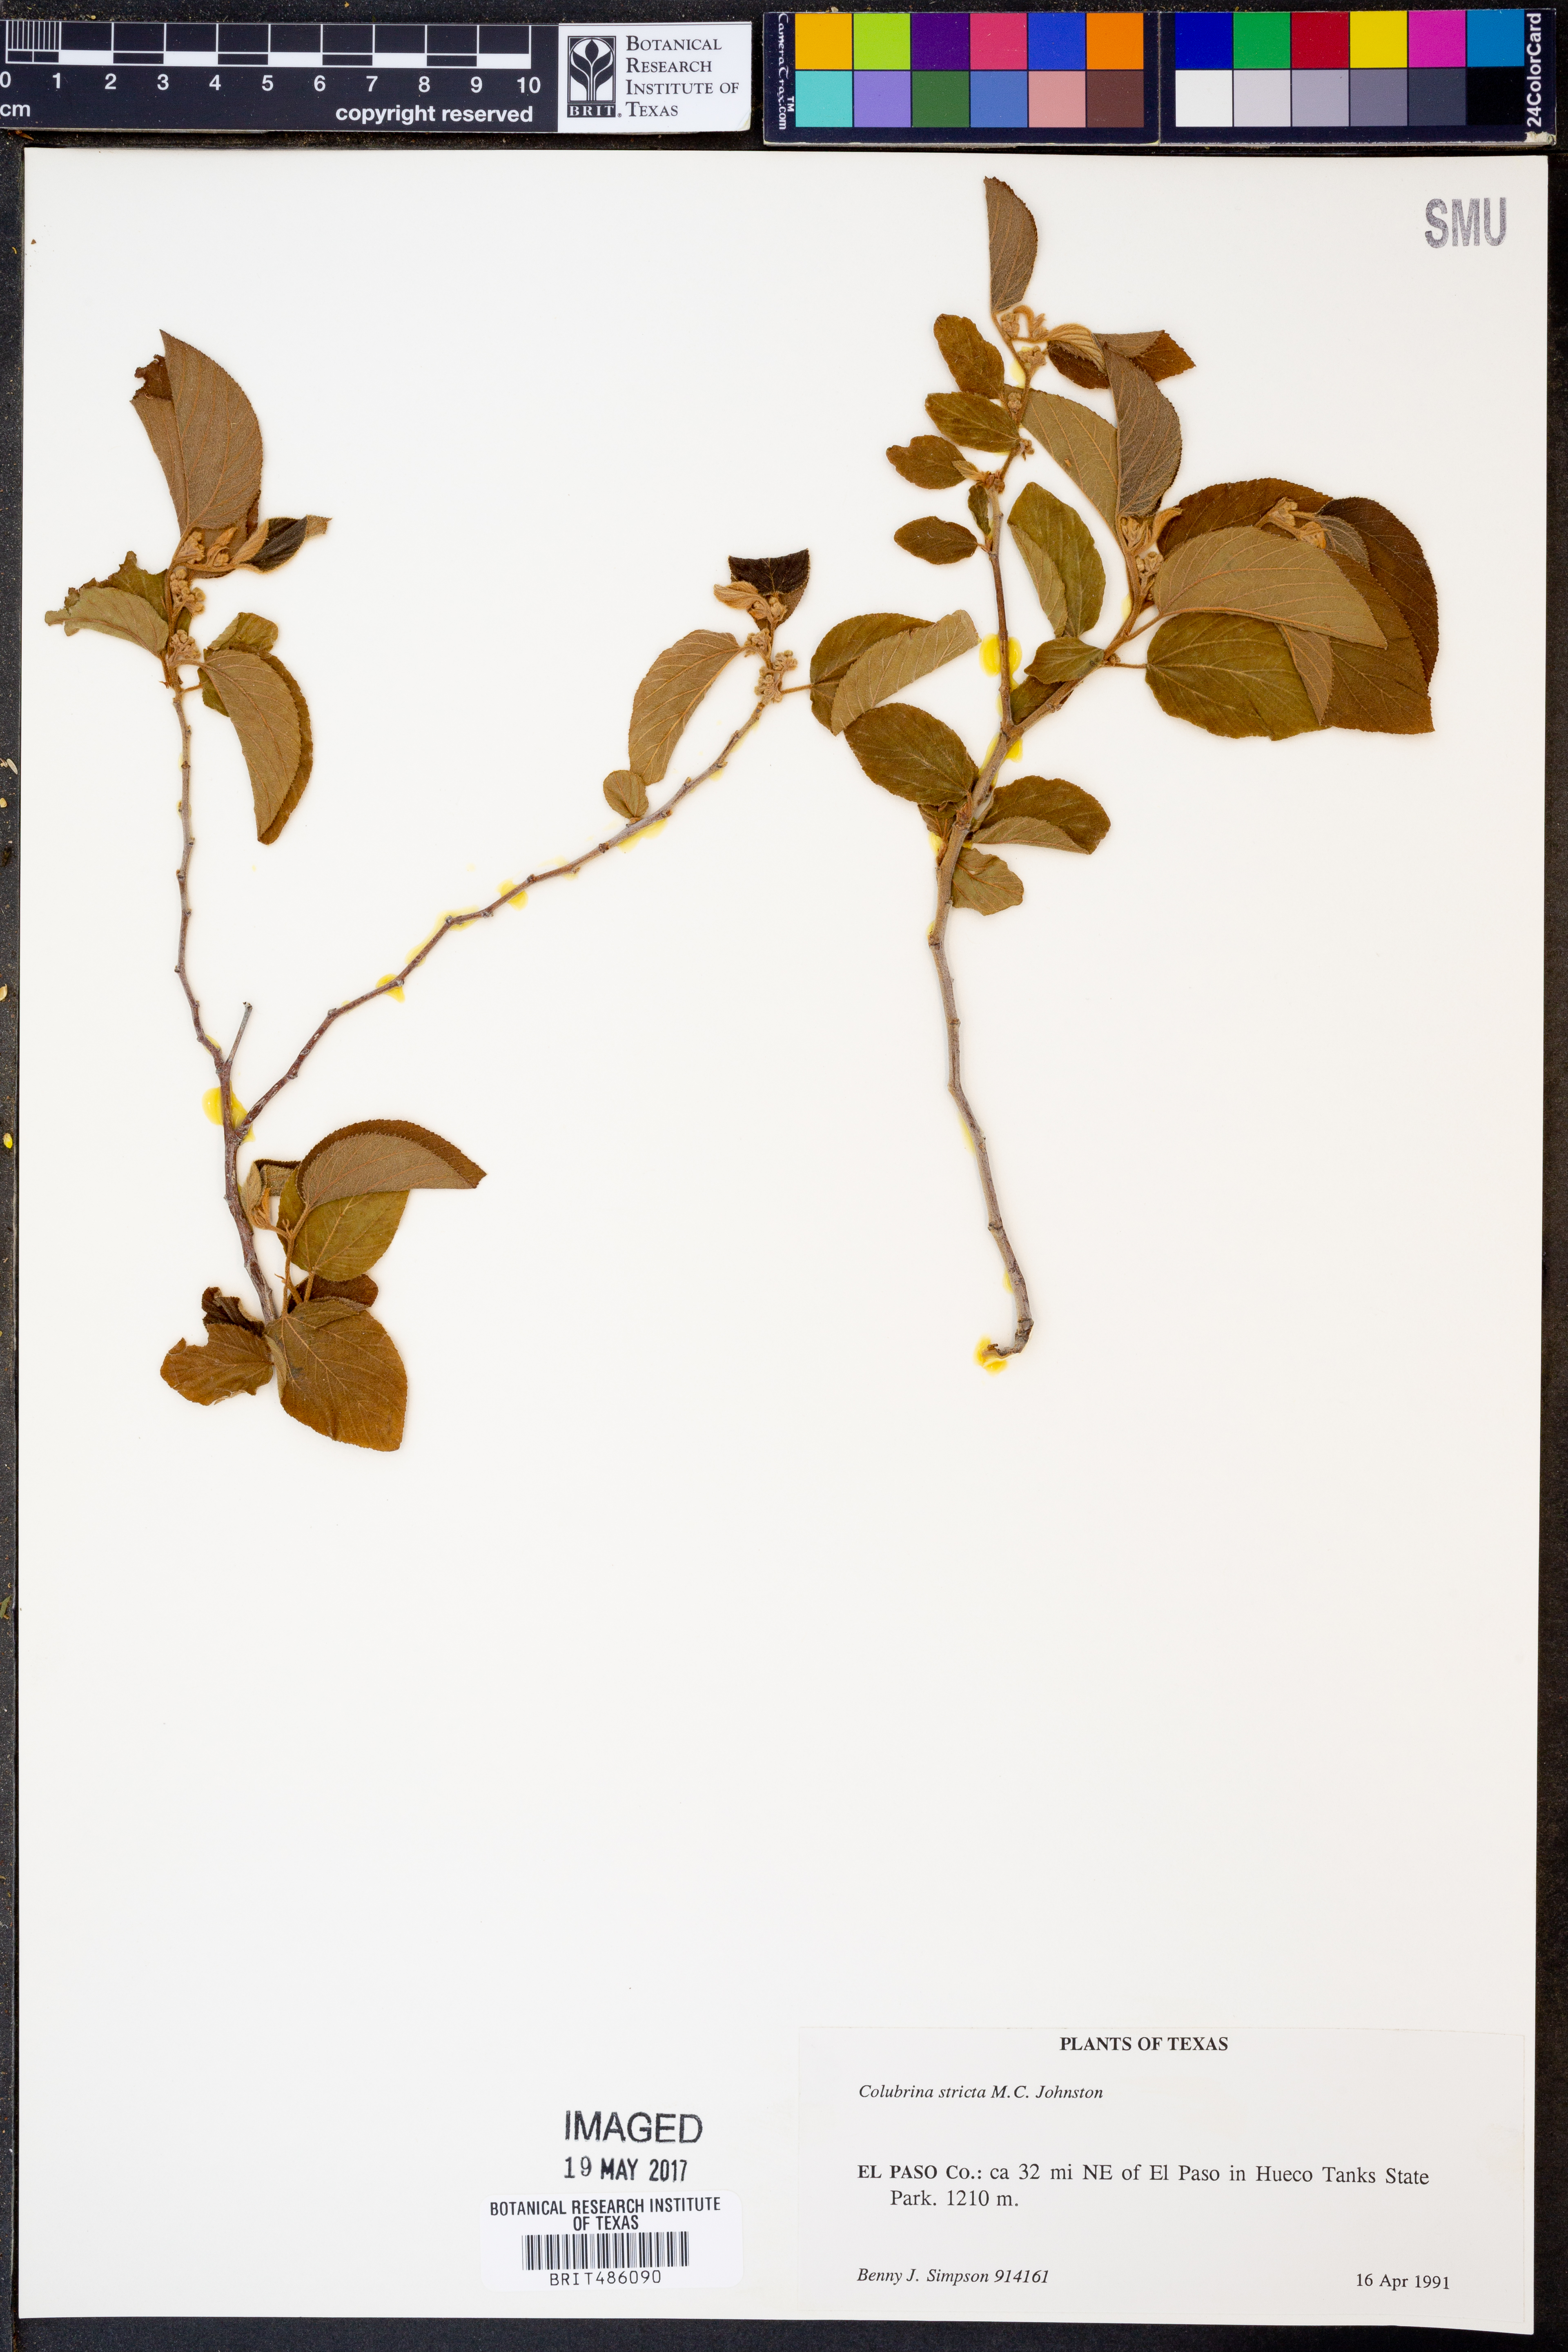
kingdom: Plantae
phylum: Tracheophyta
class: Magnoliopsida
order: Rosales
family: Rhamnaceae
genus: Colubrina
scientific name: Colubrina stricta
